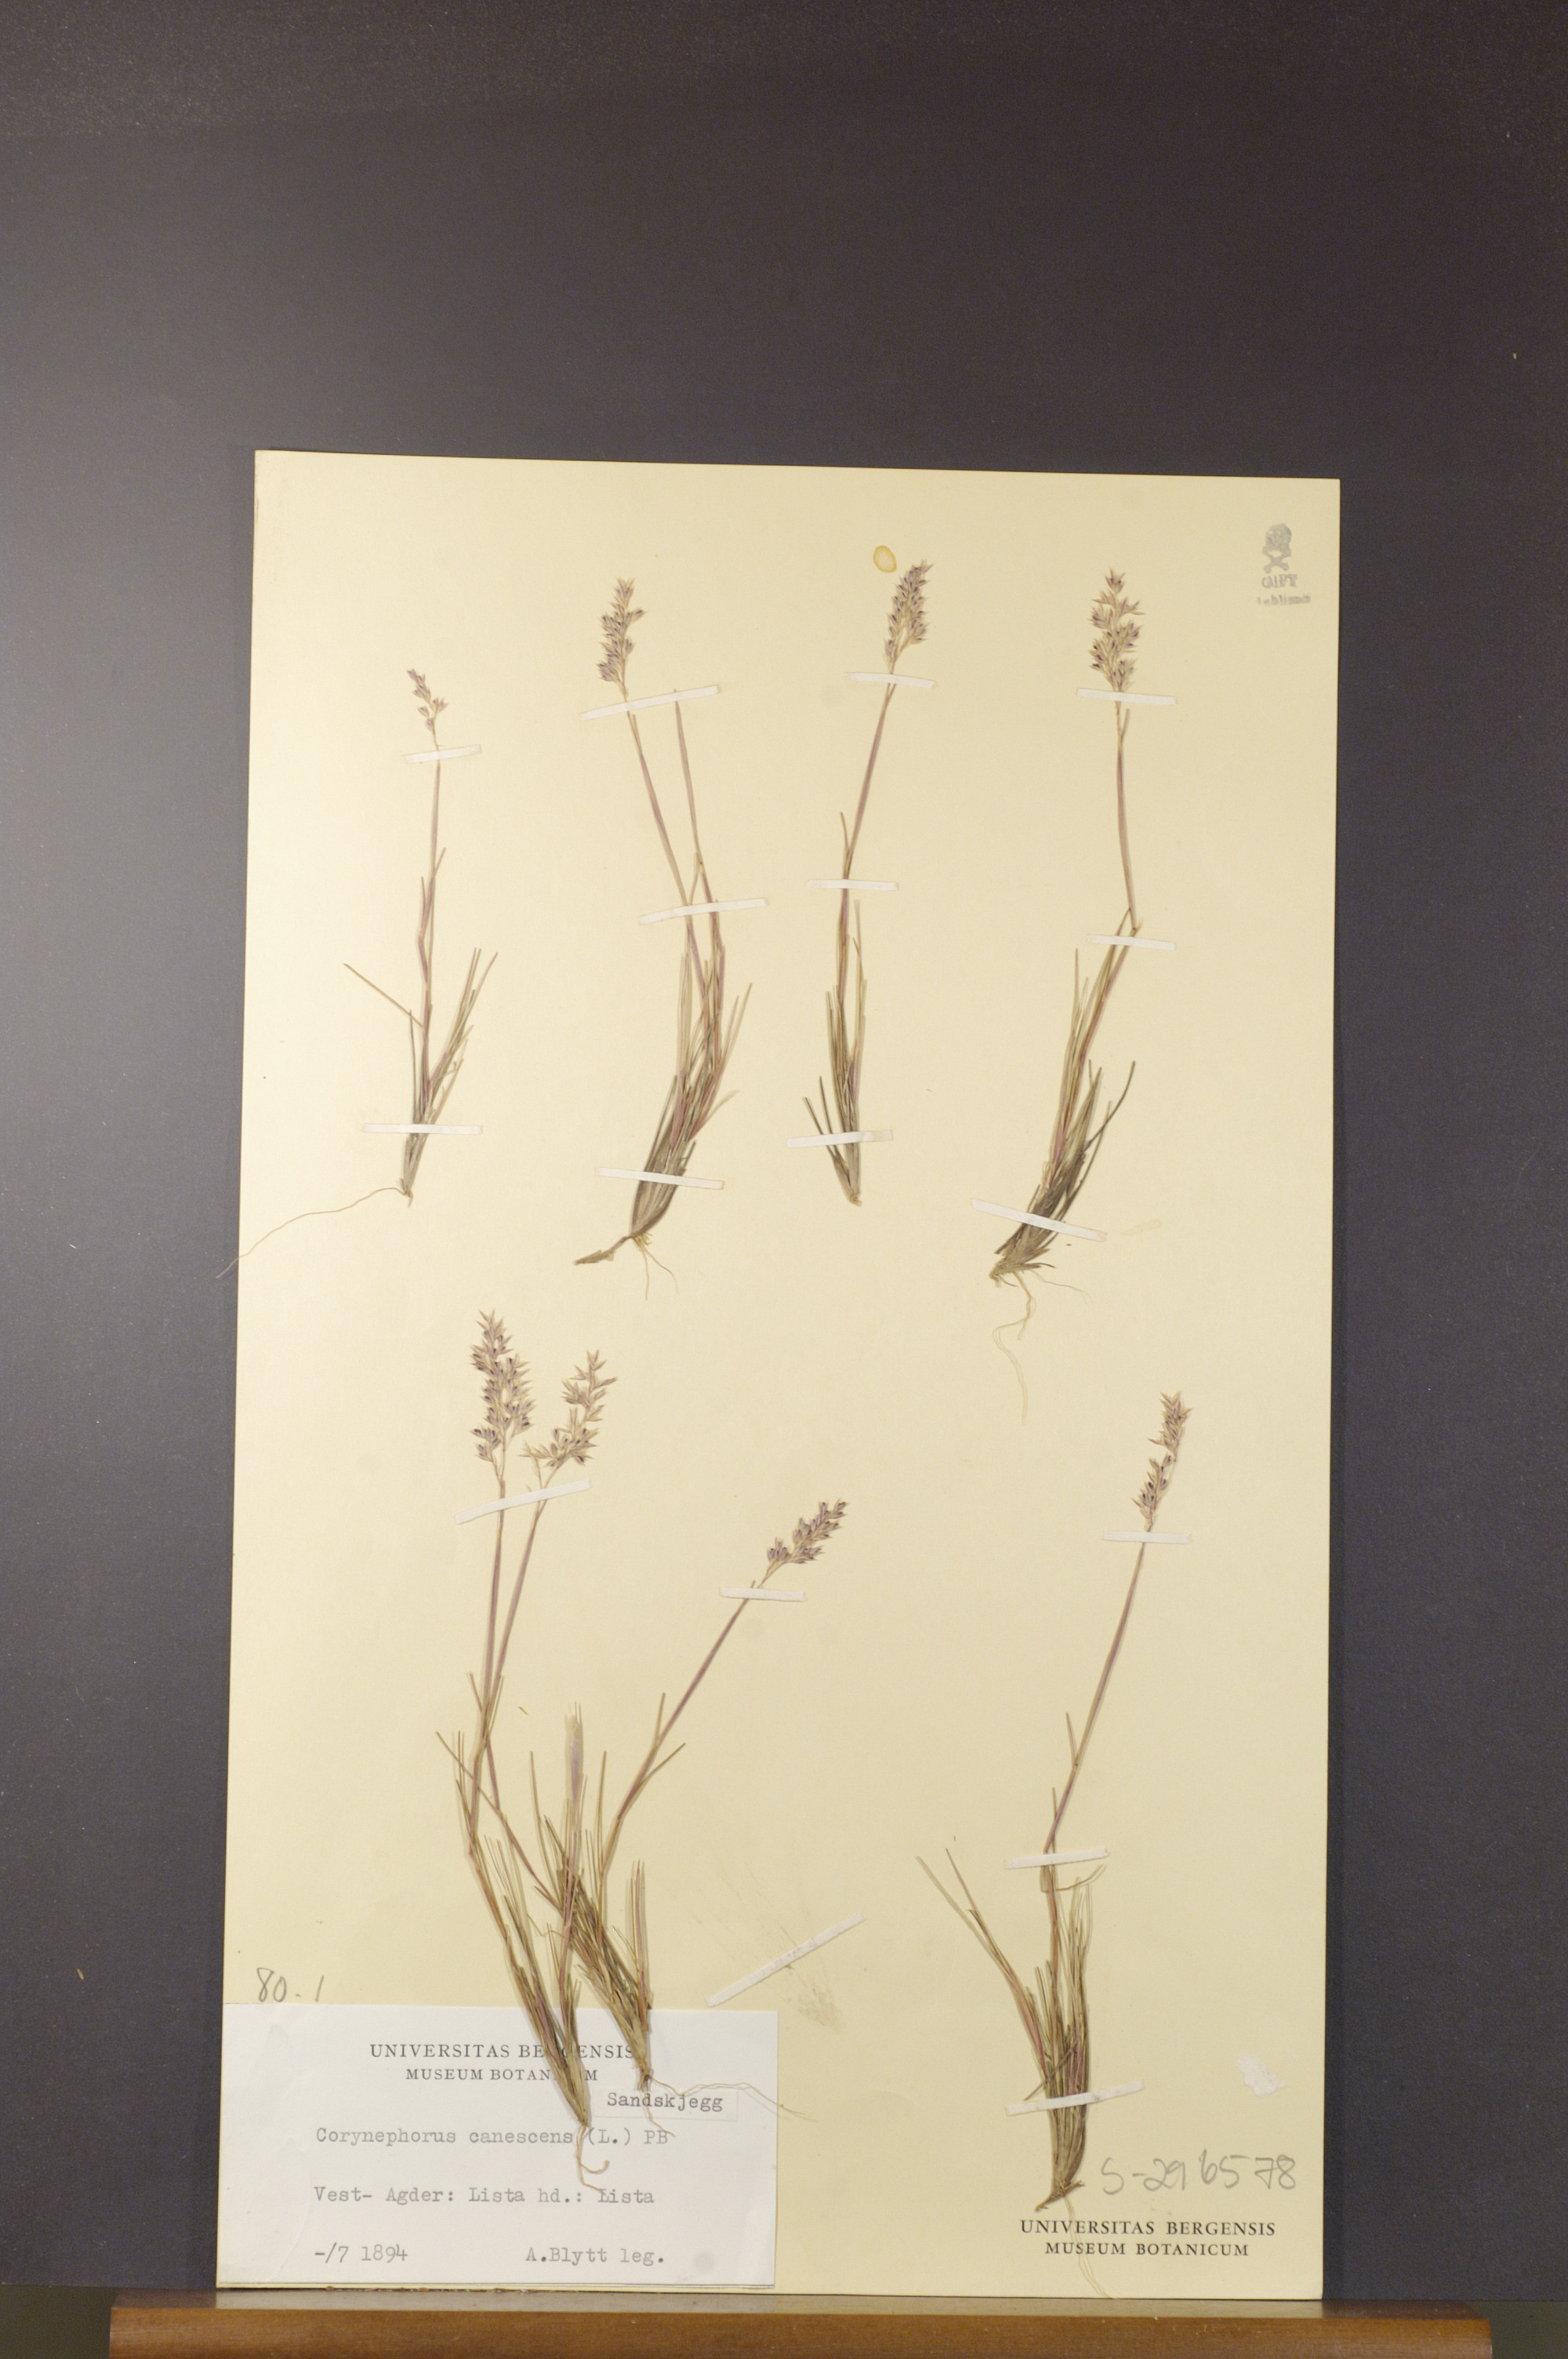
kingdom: Plantae
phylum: Tracheophyta
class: Liliopsida
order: Poales
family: Poaceae
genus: Corynephorus
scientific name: Corynephorus canescens
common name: Grey hair-grass
